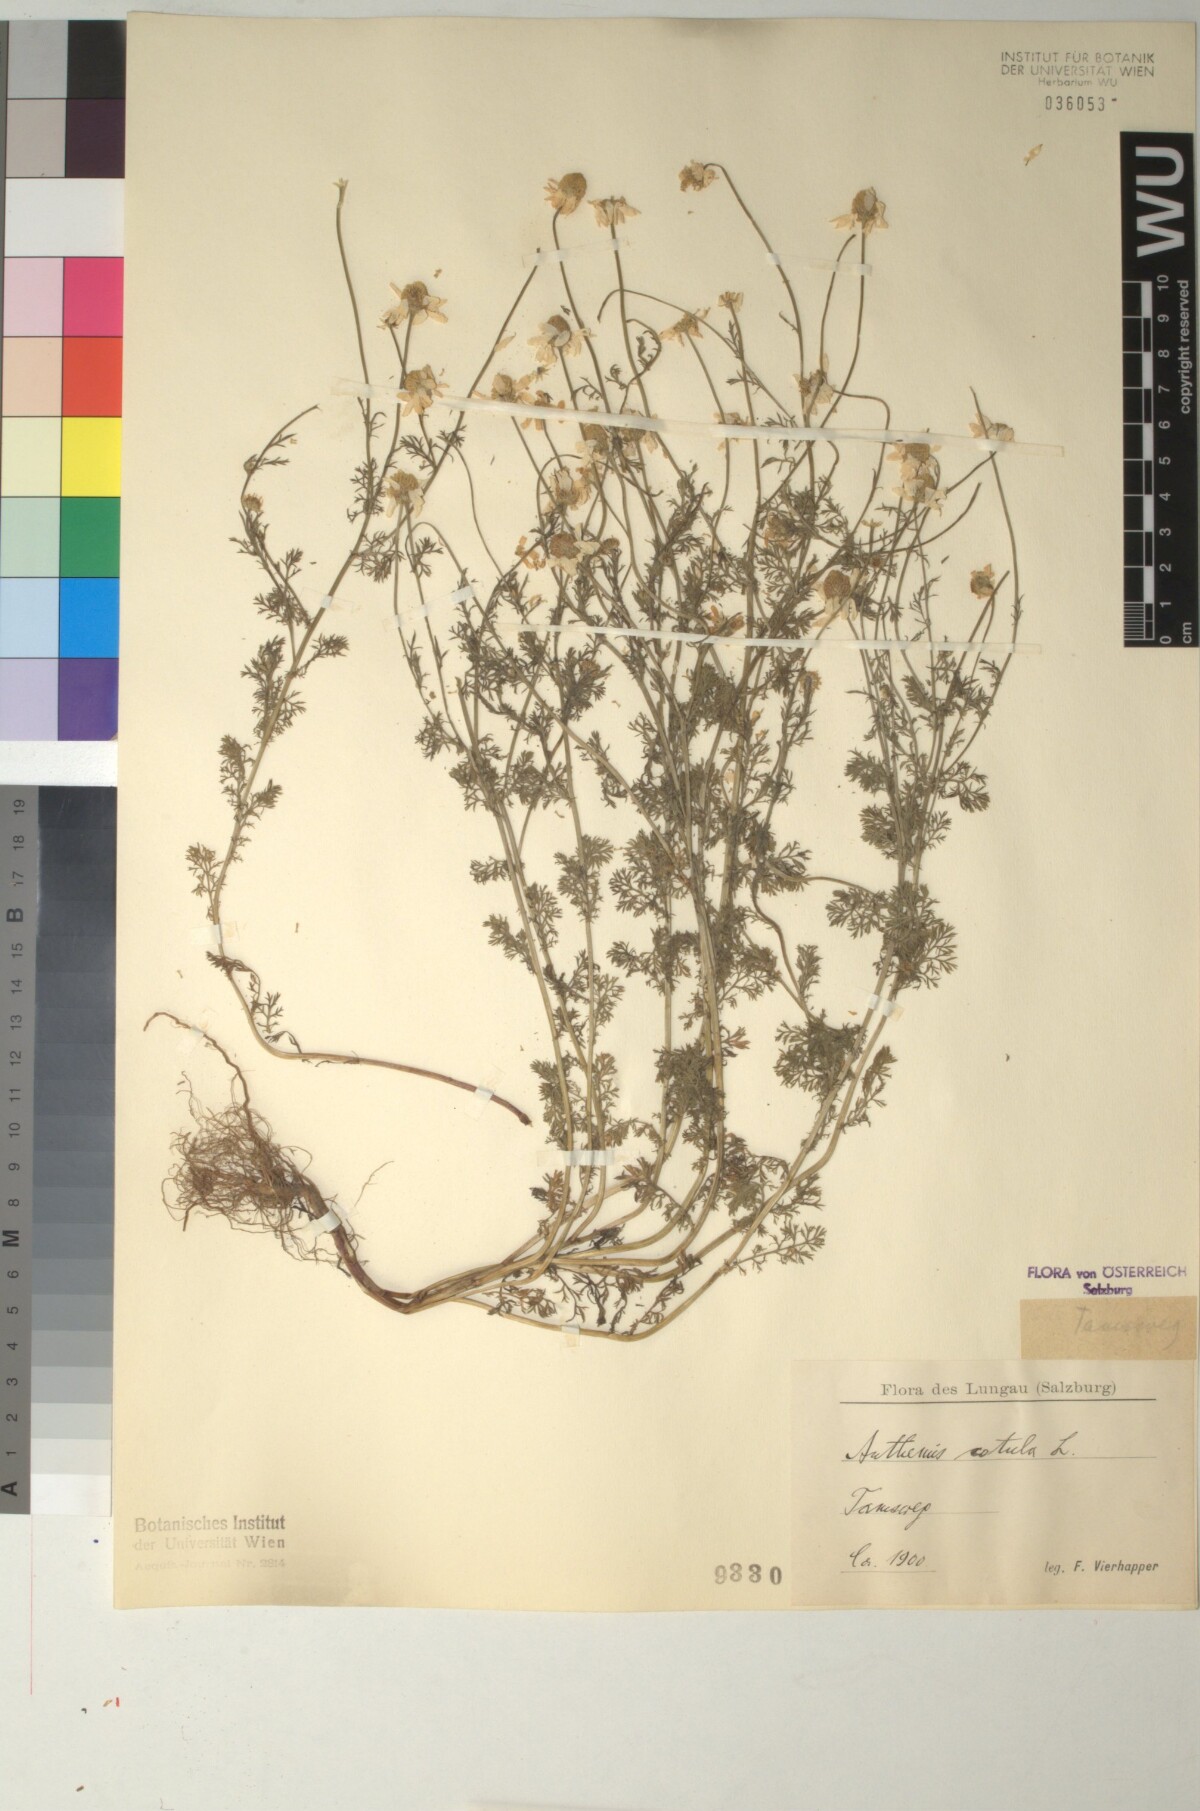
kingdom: Plantae
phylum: Tracheophyta
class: Magnoliopsida
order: Asterales
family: Asteraceae
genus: Anthemis
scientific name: Anthemis cotula
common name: Stinking chamomile
